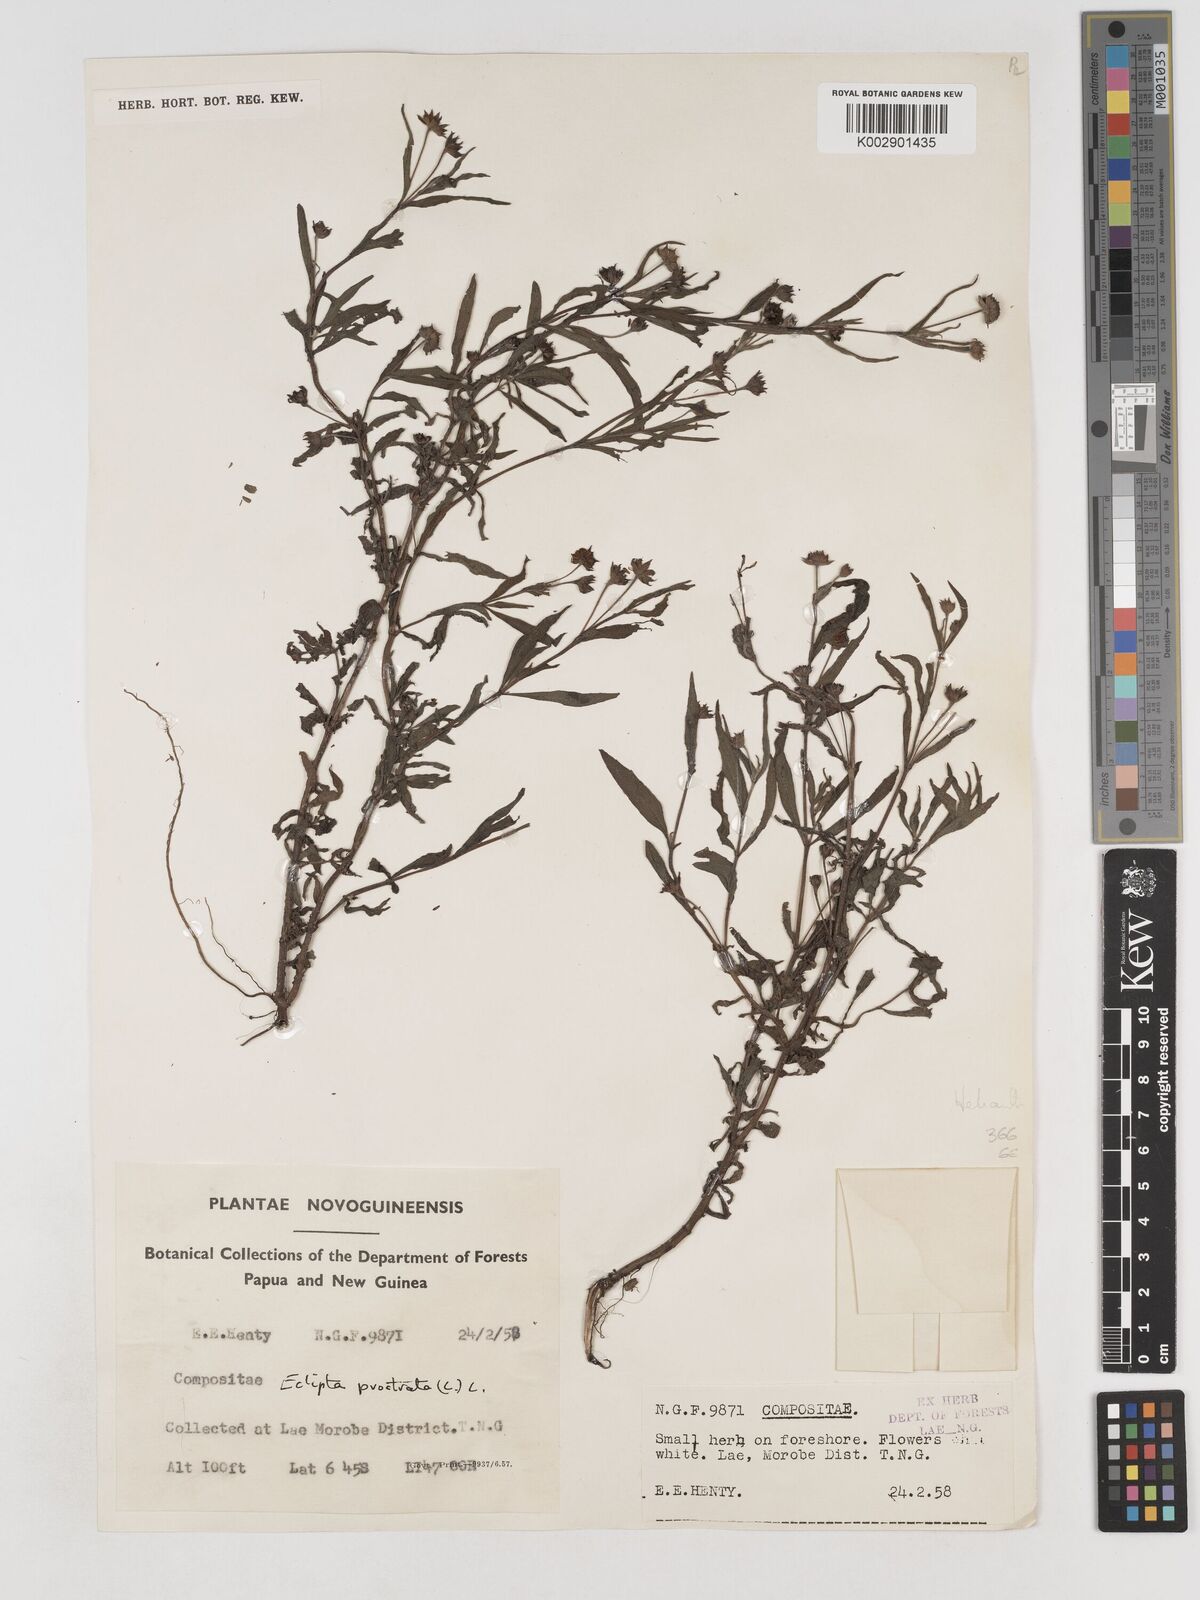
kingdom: Plantae
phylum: Tracheophyta
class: Magnoliopsida
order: Asterales
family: Asteraceae
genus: Eclipta
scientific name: Eclipta prostrata
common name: False daisy
